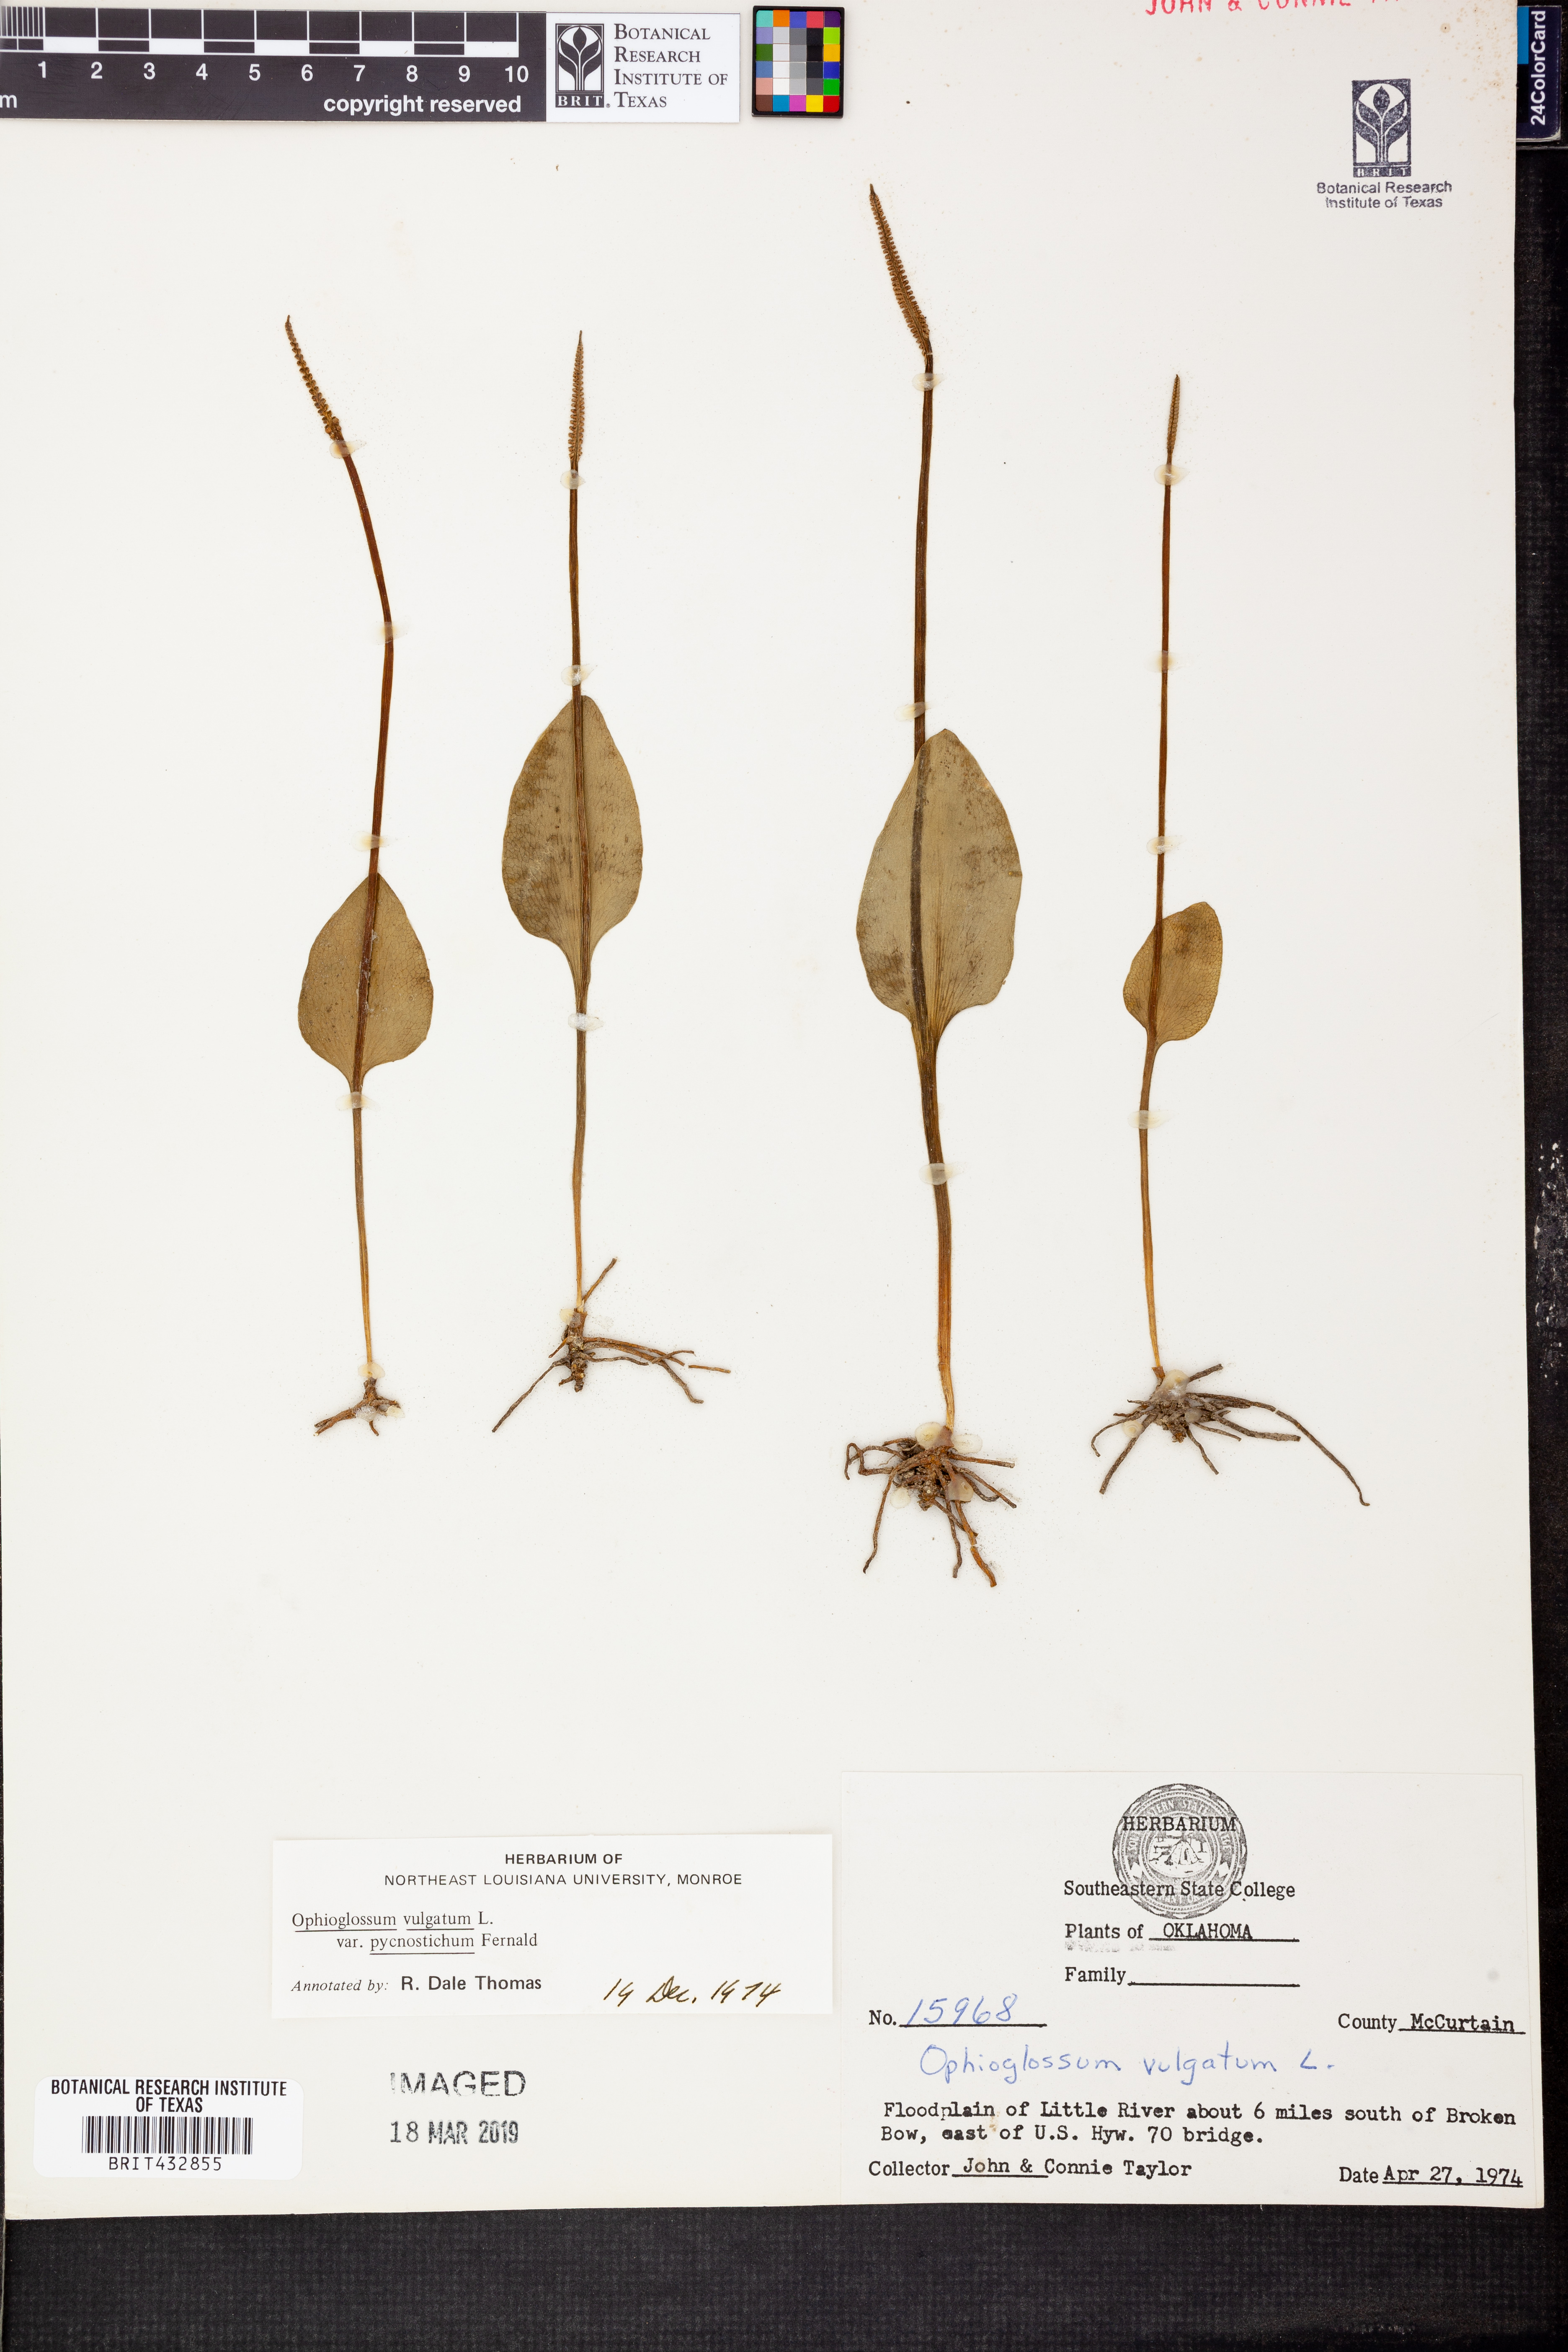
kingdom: Plantae
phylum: Tracheophyta
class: Polypodiopsida
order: Ophioglossales
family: Ophioglossaceae
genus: Ophioglossum
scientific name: Ophioglossum vulgatum
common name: Adder's-tongue
